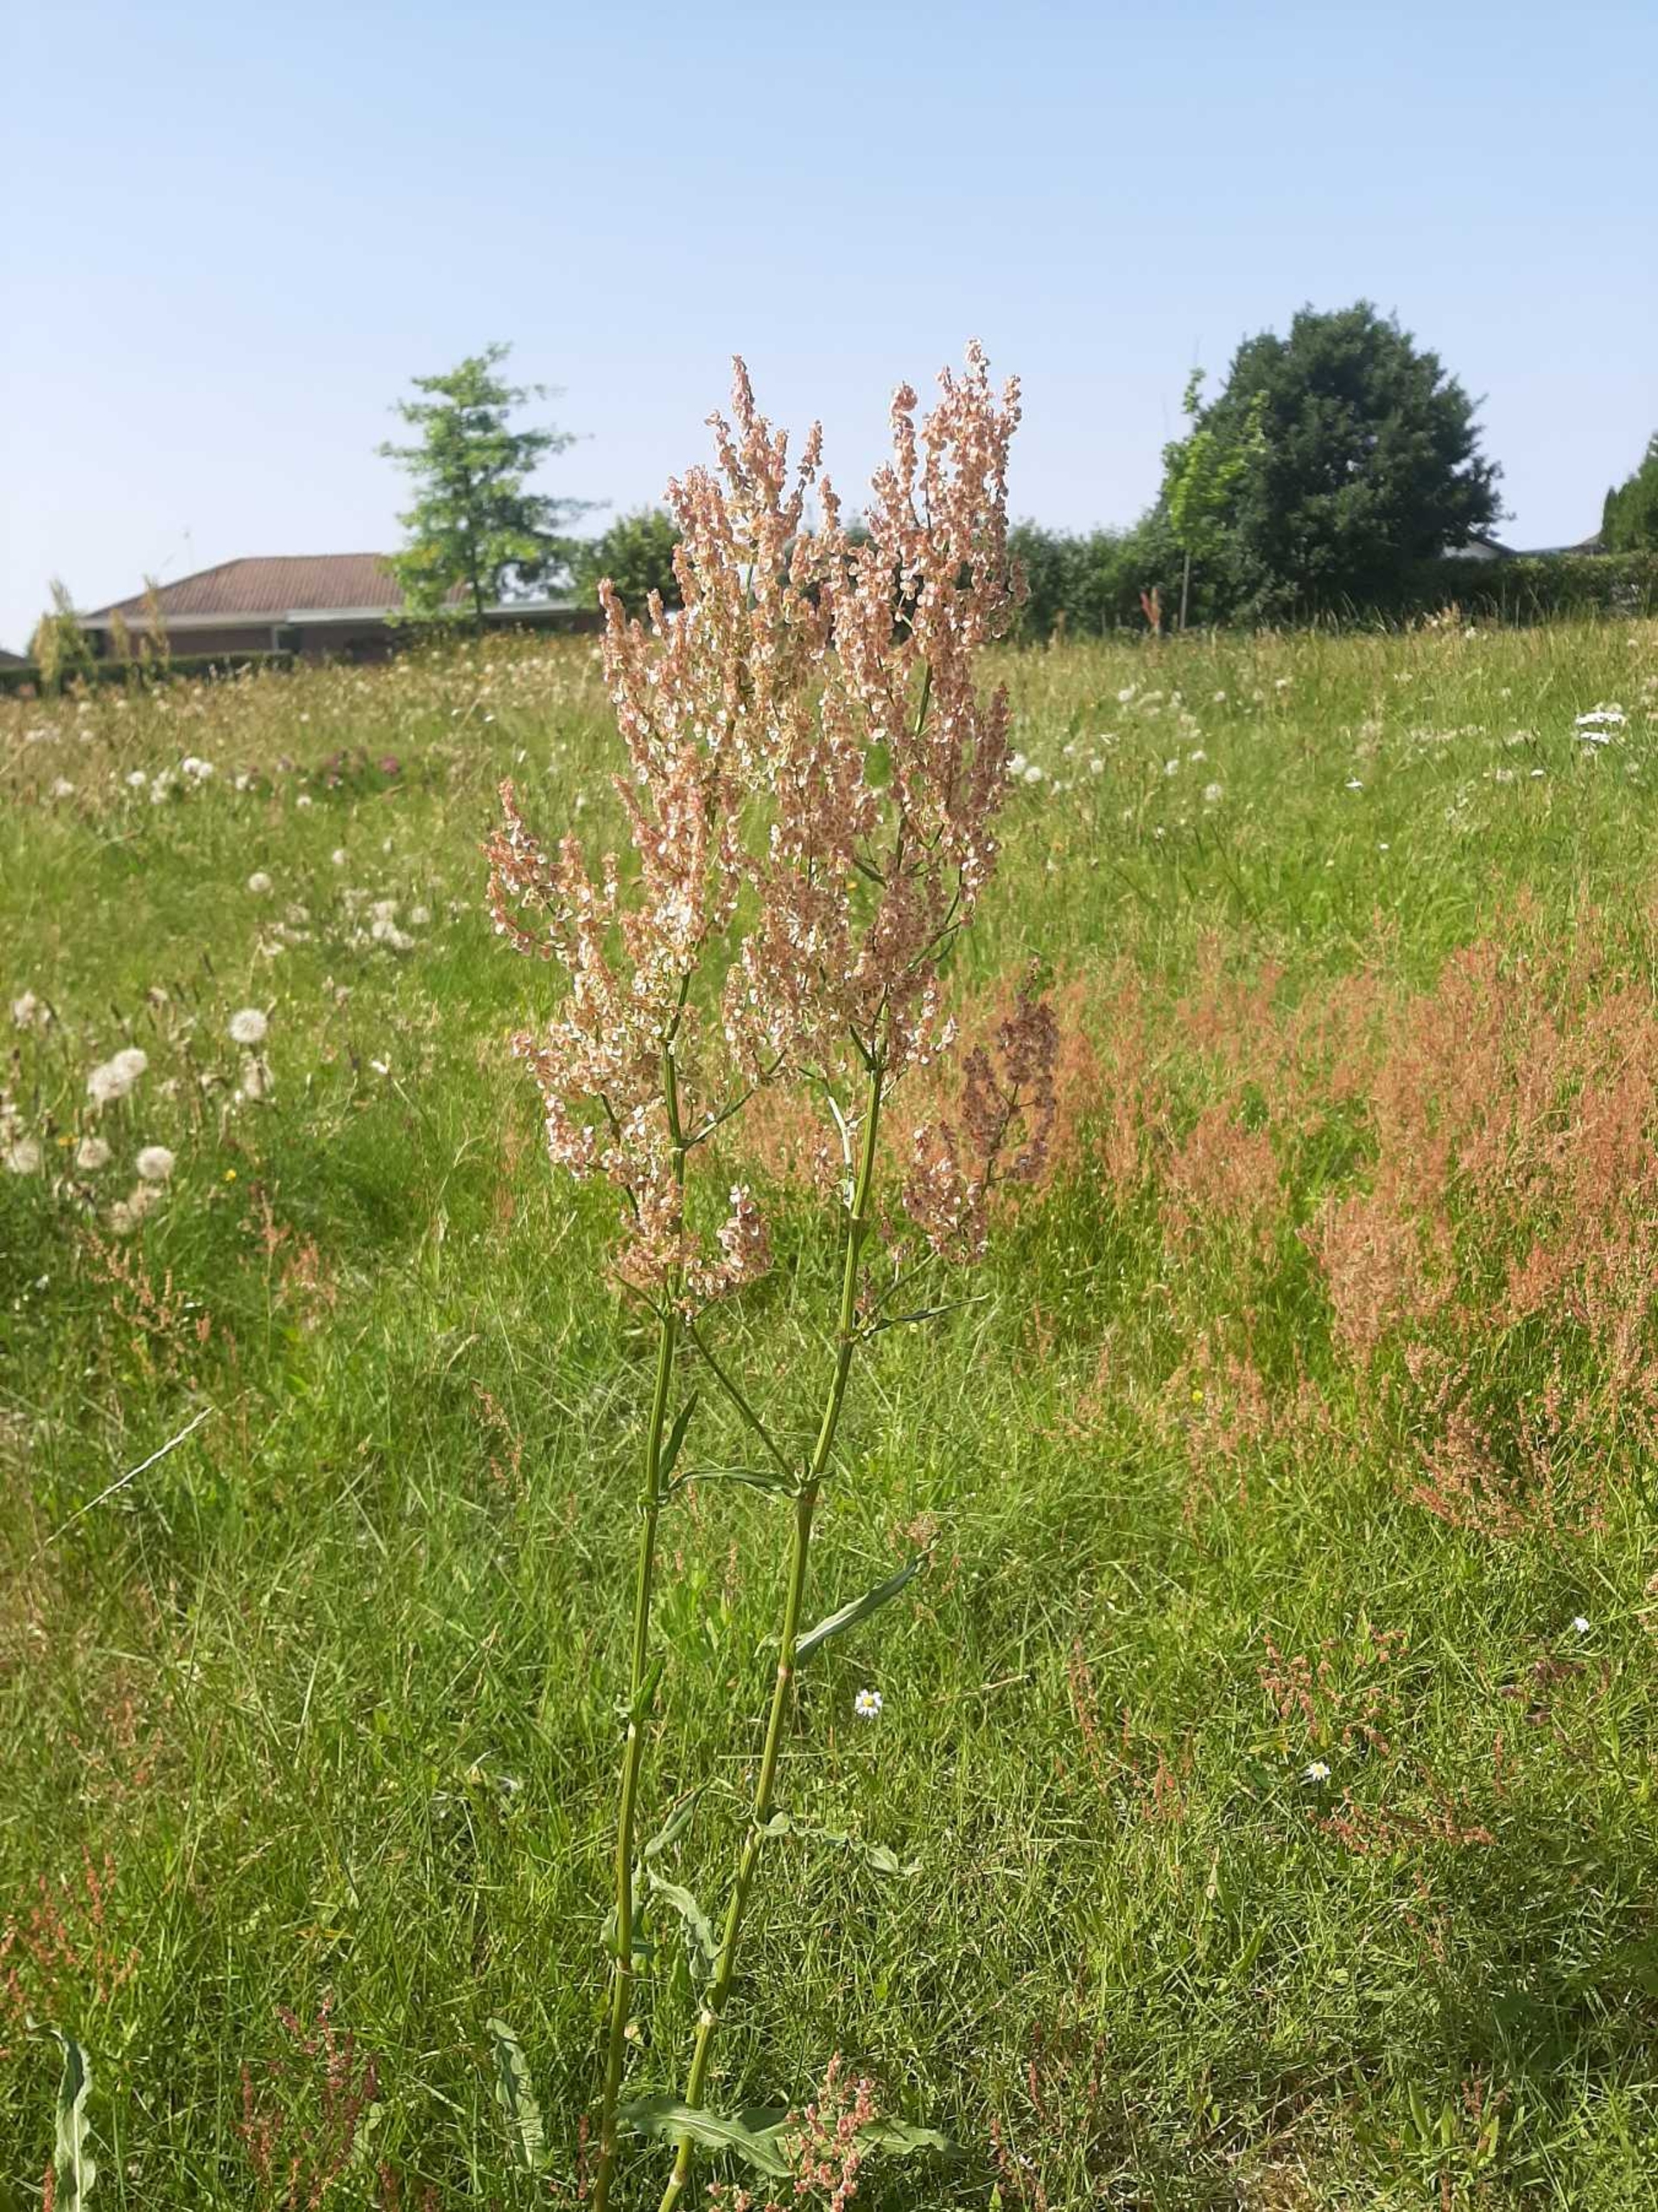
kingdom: Plantae
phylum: Tracheophyta
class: Magnoliopsida
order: Caryophyllales
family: Polygonaceae
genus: Rumex
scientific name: Rumex thyrsiflorus
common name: Dusk-syre
